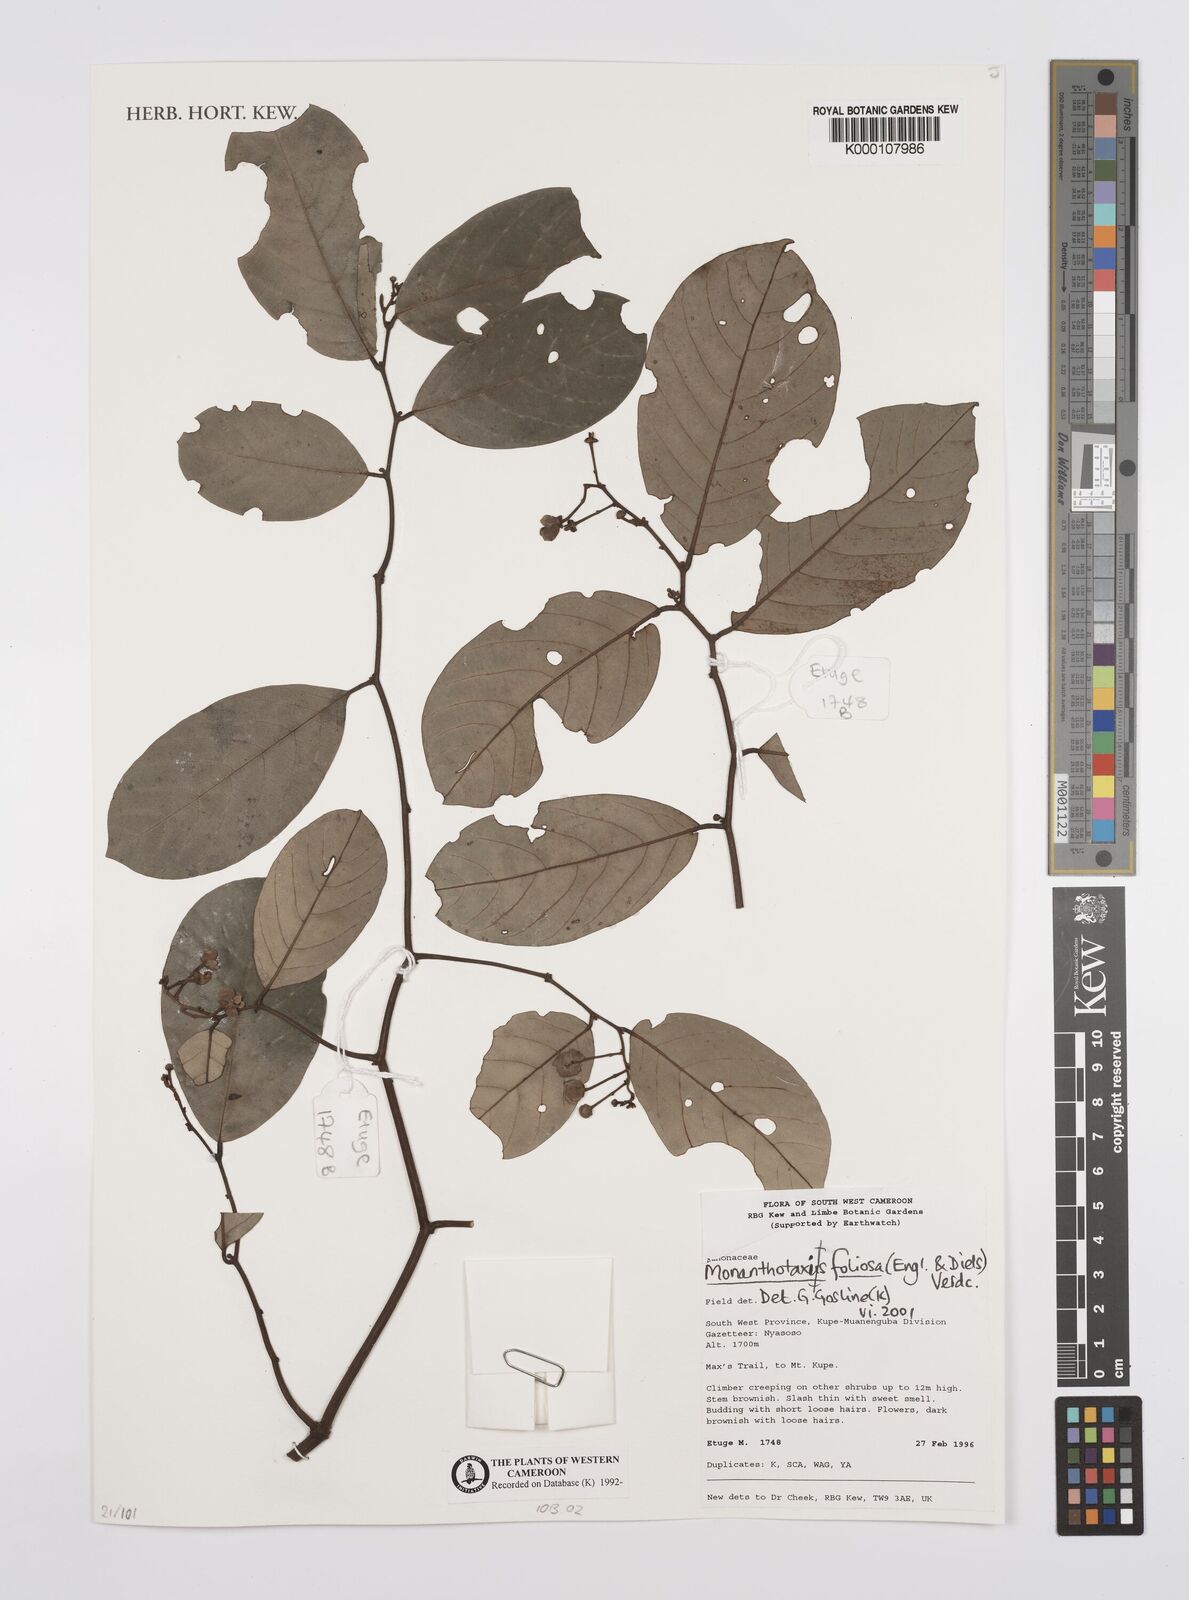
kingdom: Plantae
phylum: Tracheophyta
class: Magnoliopsida
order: Magnoliales
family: Annonaceae
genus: Monanthotaxis
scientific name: Monanthotaxis foliosa
